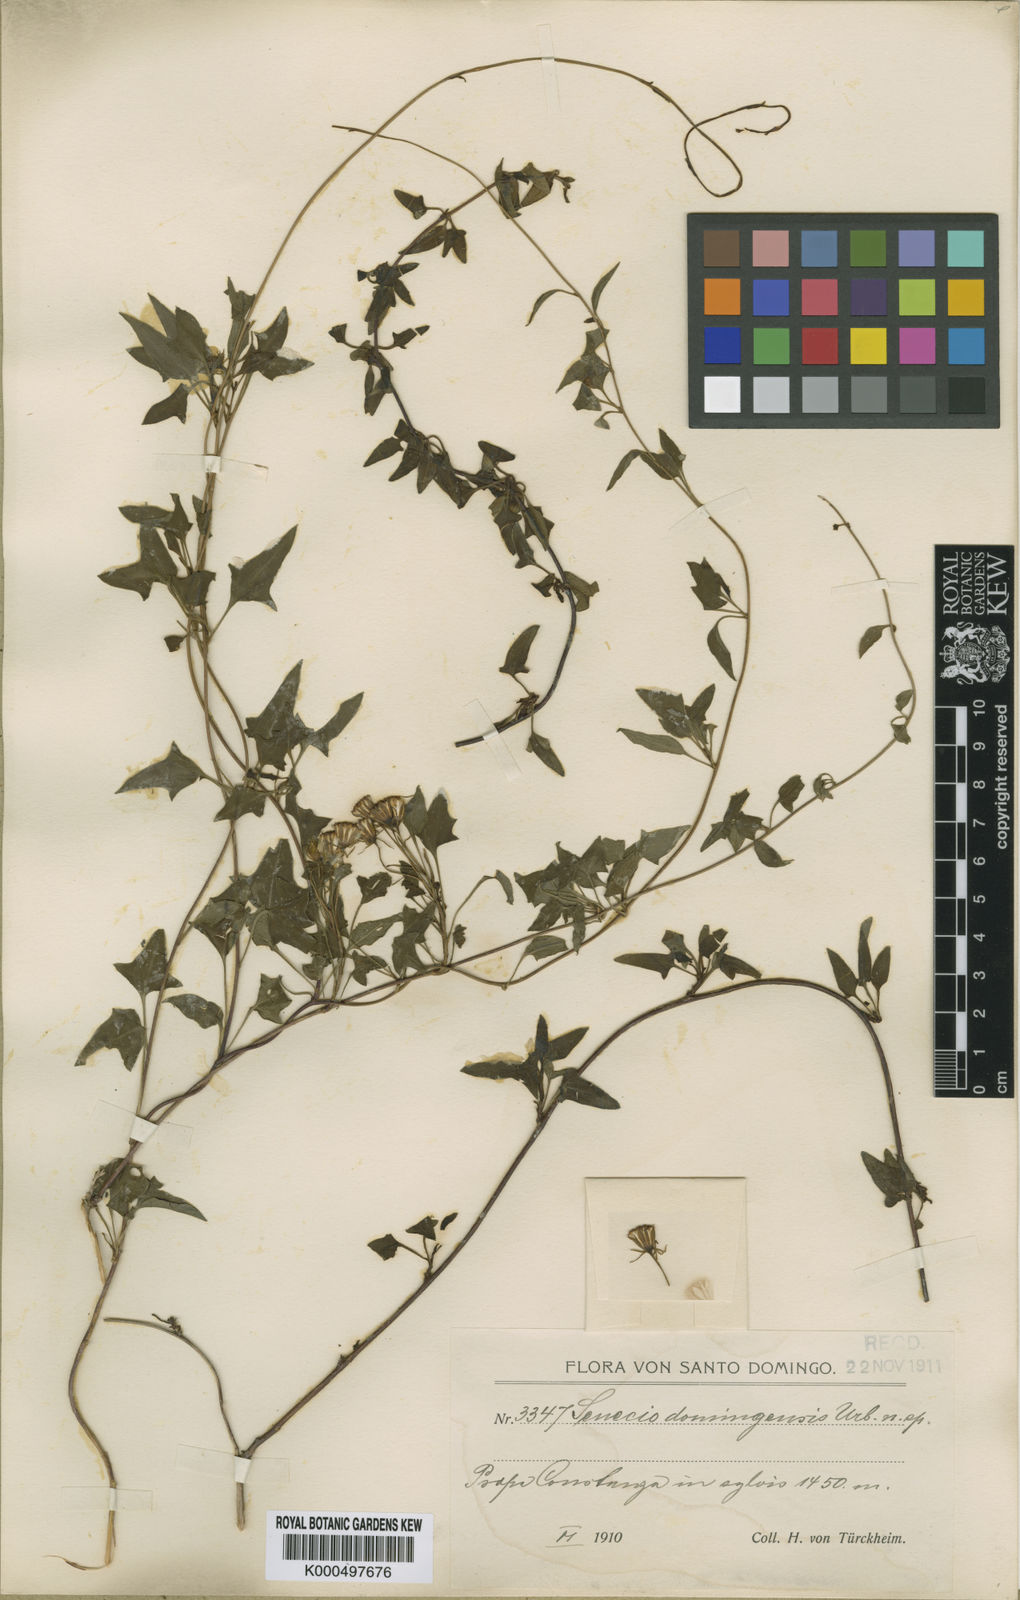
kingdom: Plantae
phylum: Tracheophyta
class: Magnoliopsida
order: Asterales
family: Asteraceae
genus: Leonis
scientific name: Leonis trineura
